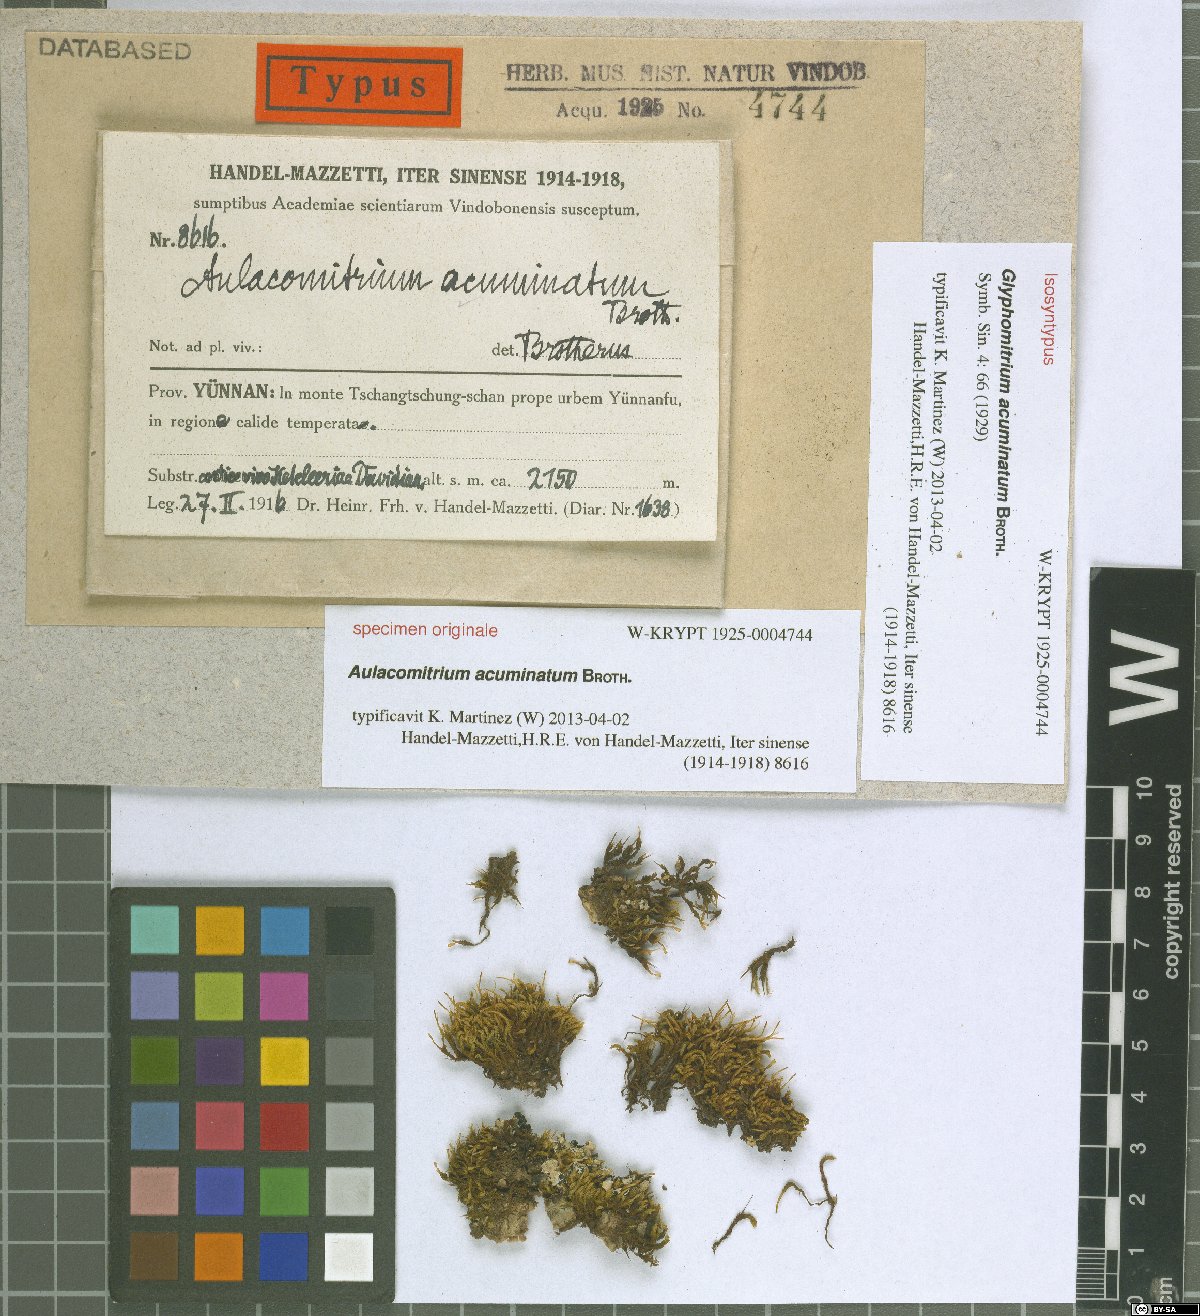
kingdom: Plantae
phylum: Bryophyta
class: Bryopsida
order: Dicranales
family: Rhabdoweisiaceae
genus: Glyphomitrium
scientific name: Glyphomitrium acuminatum
